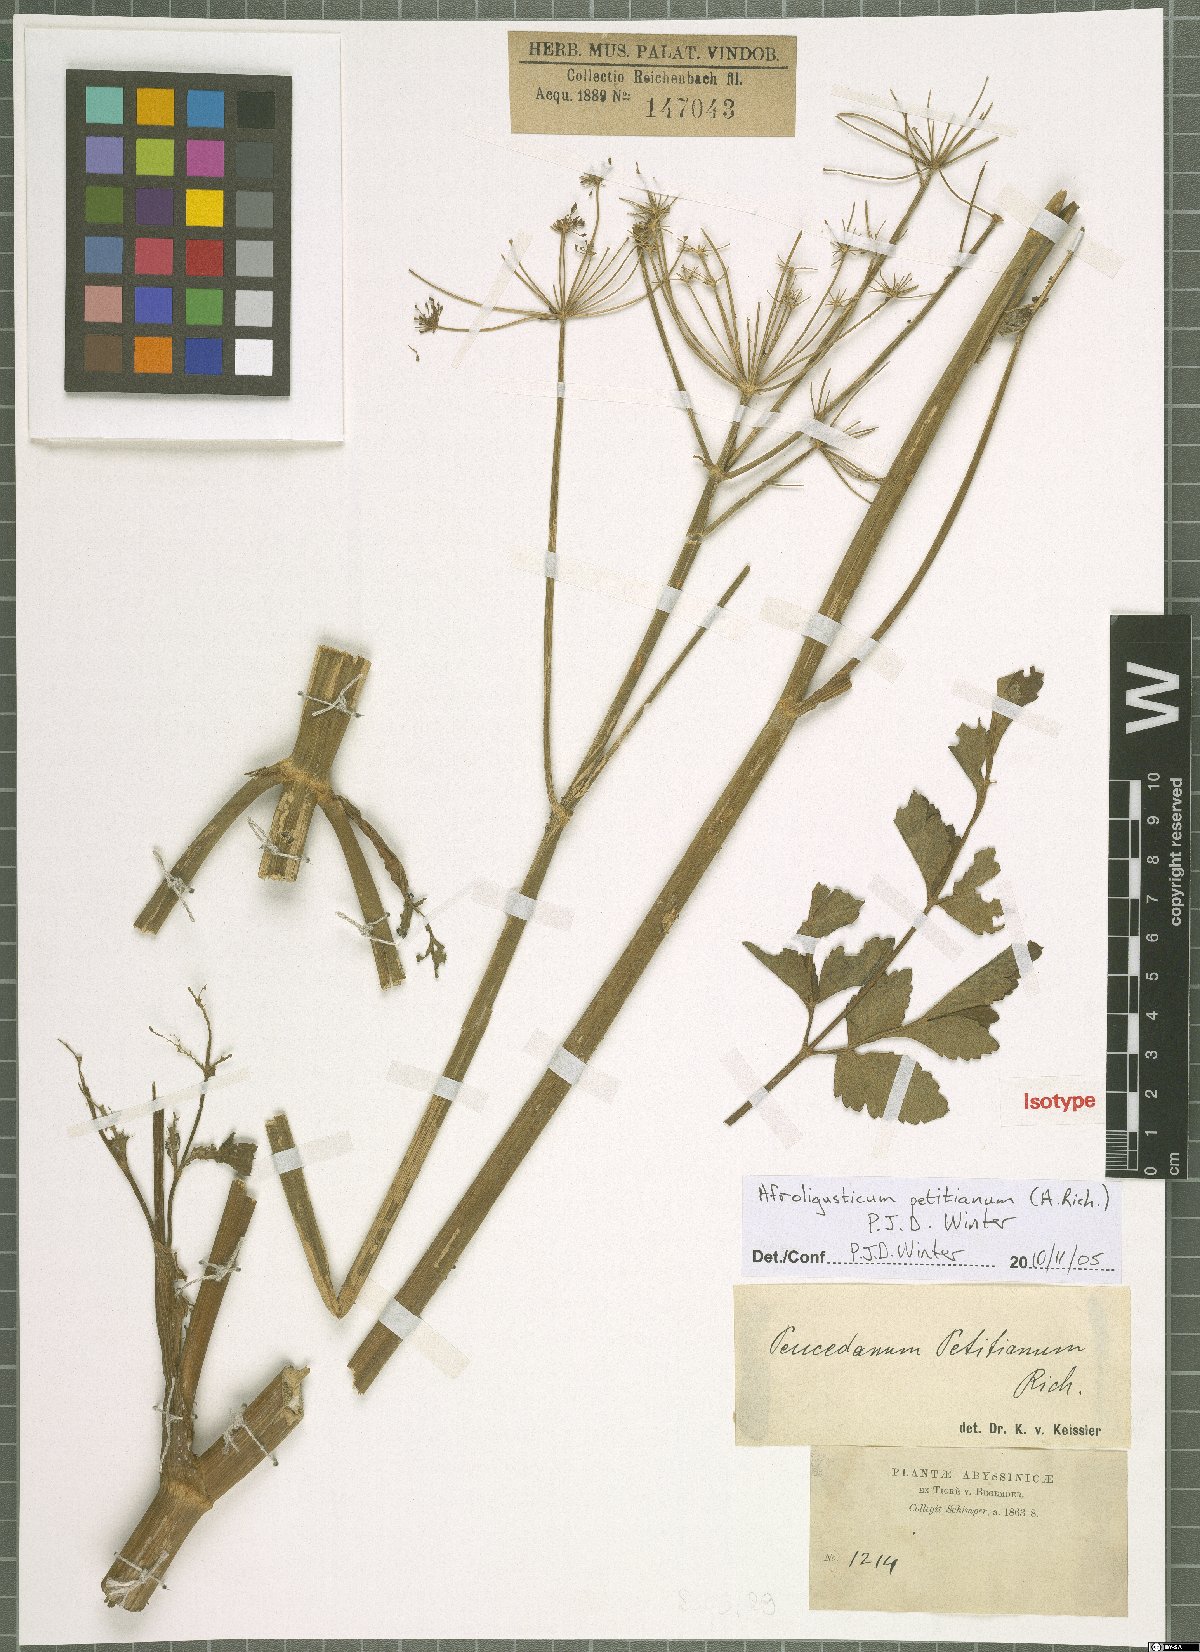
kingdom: Plantae
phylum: Tracheophyta
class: Magnoliopsida
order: Apiales
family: Apiaceae
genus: Afroligusticum
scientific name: Afroligusticum petitianum
